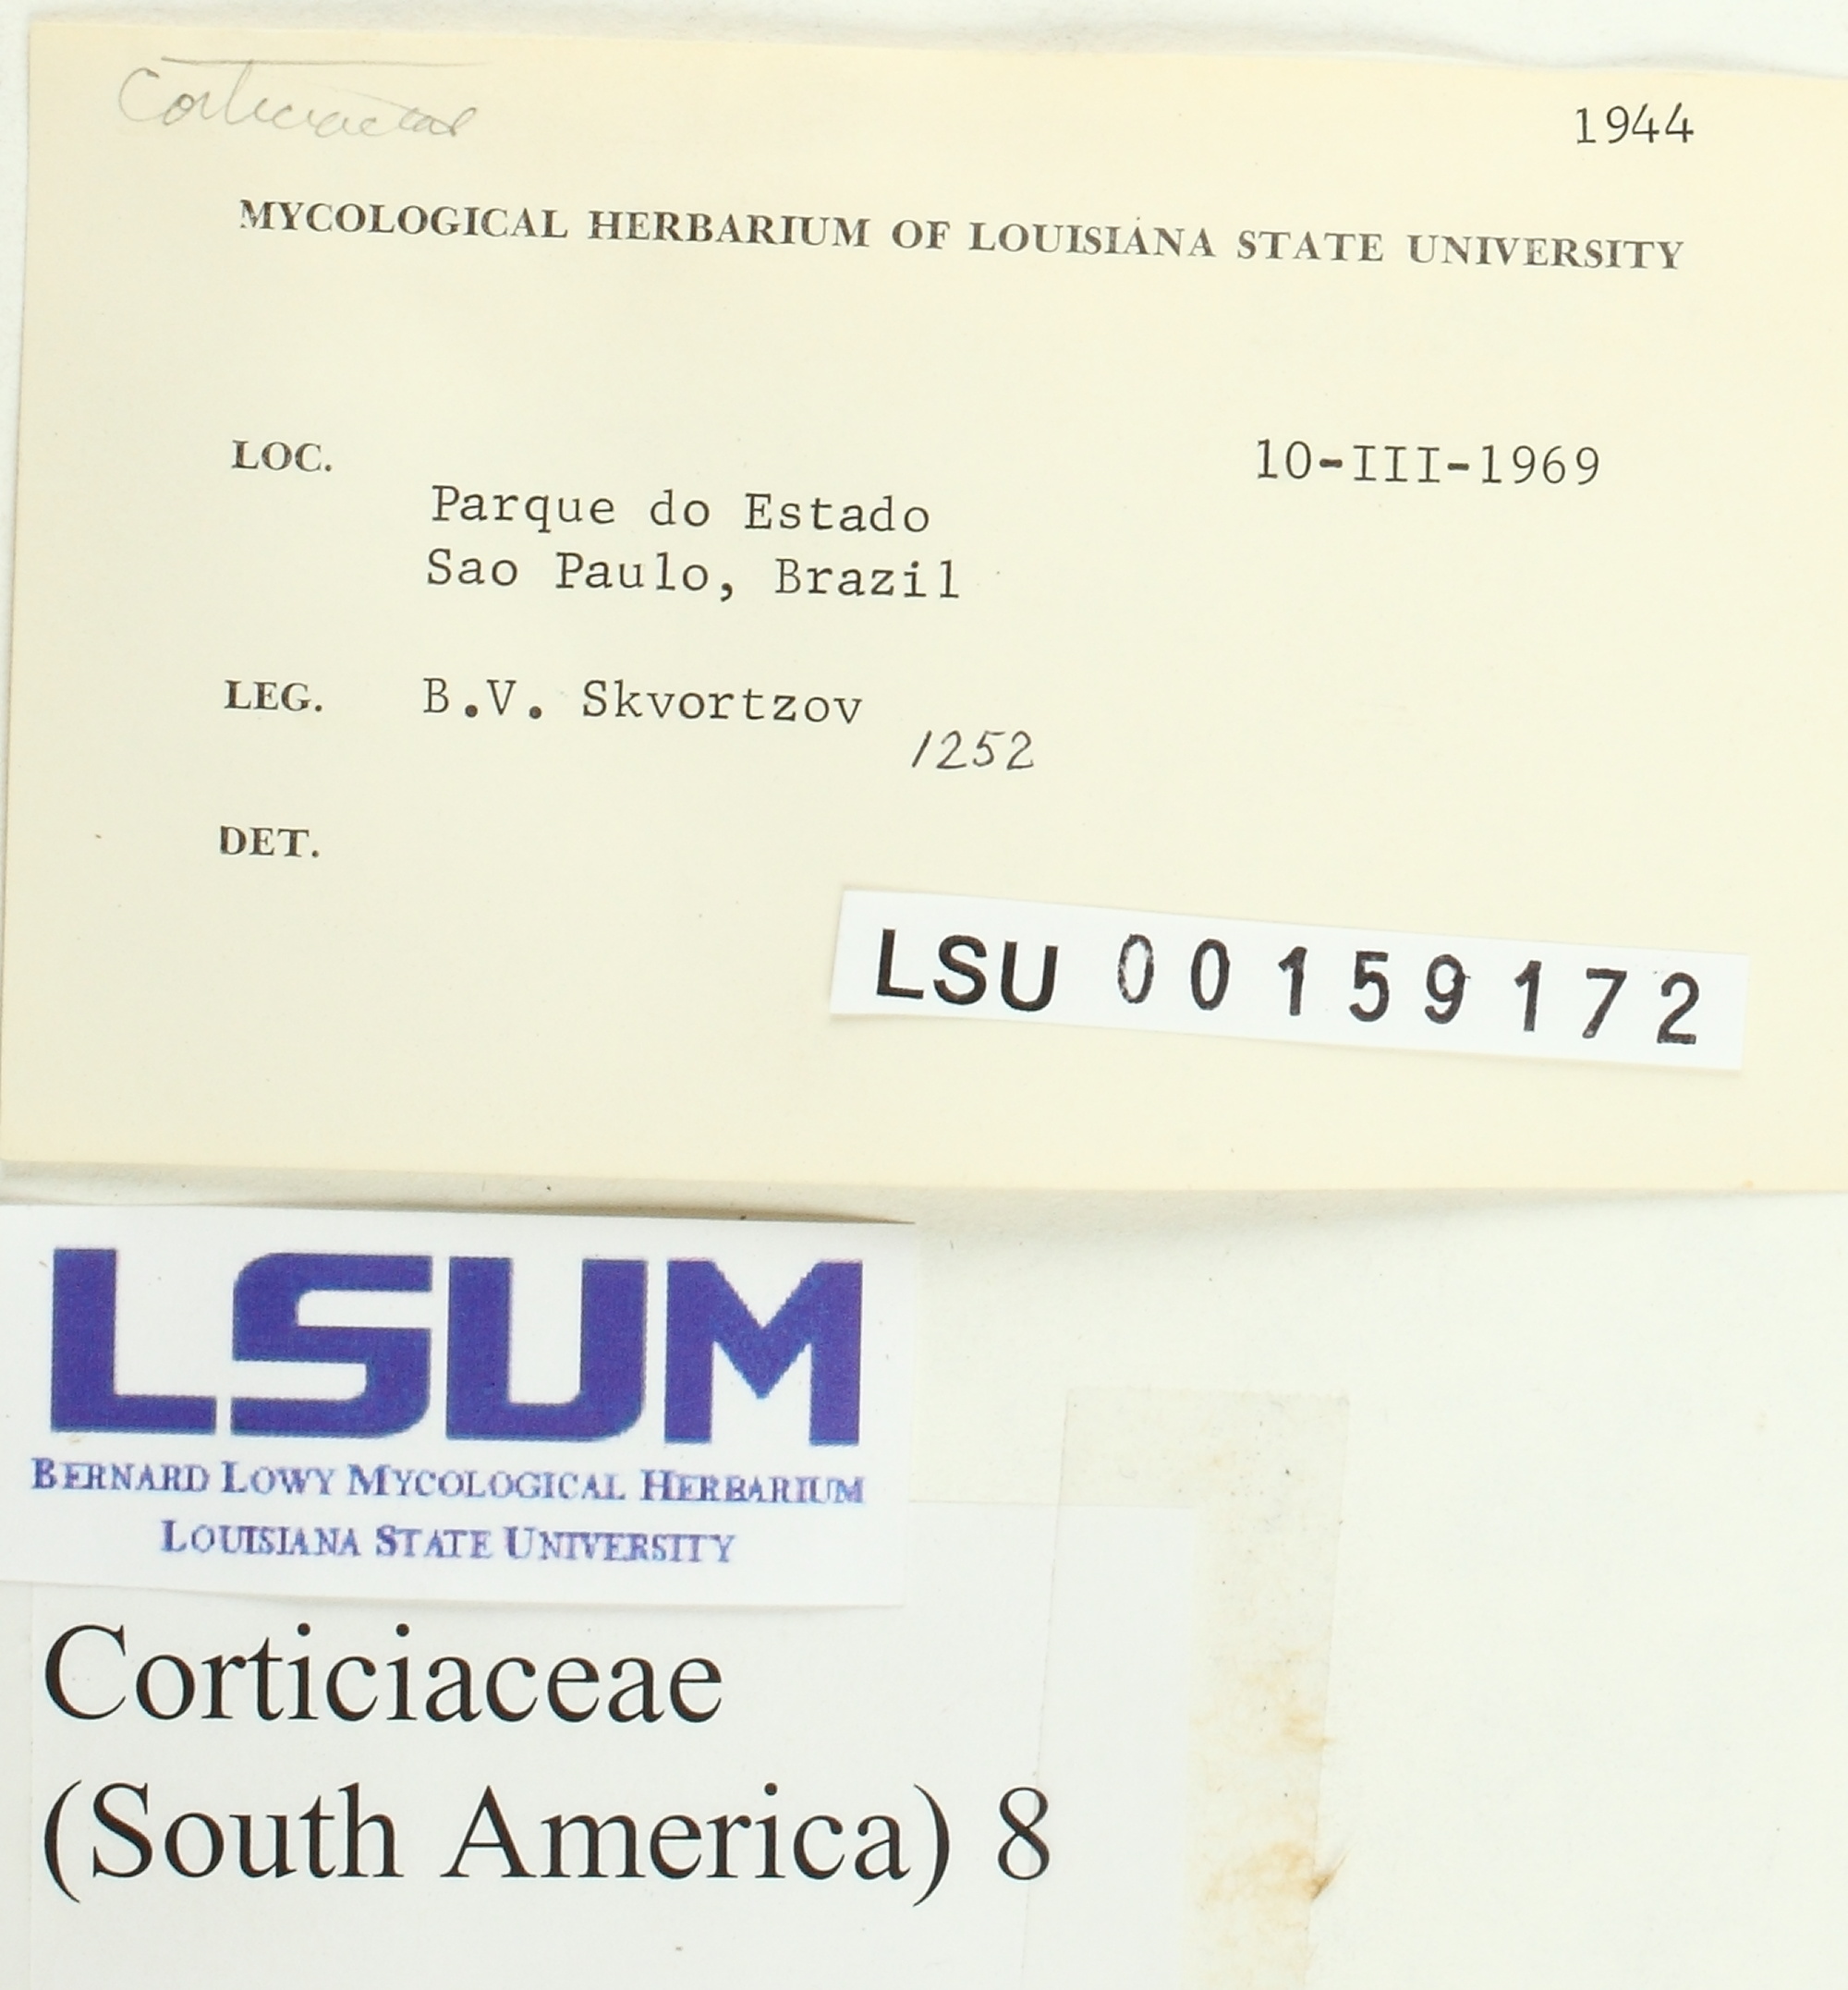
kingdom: Fungi
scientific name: Fungi
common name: Fungi
